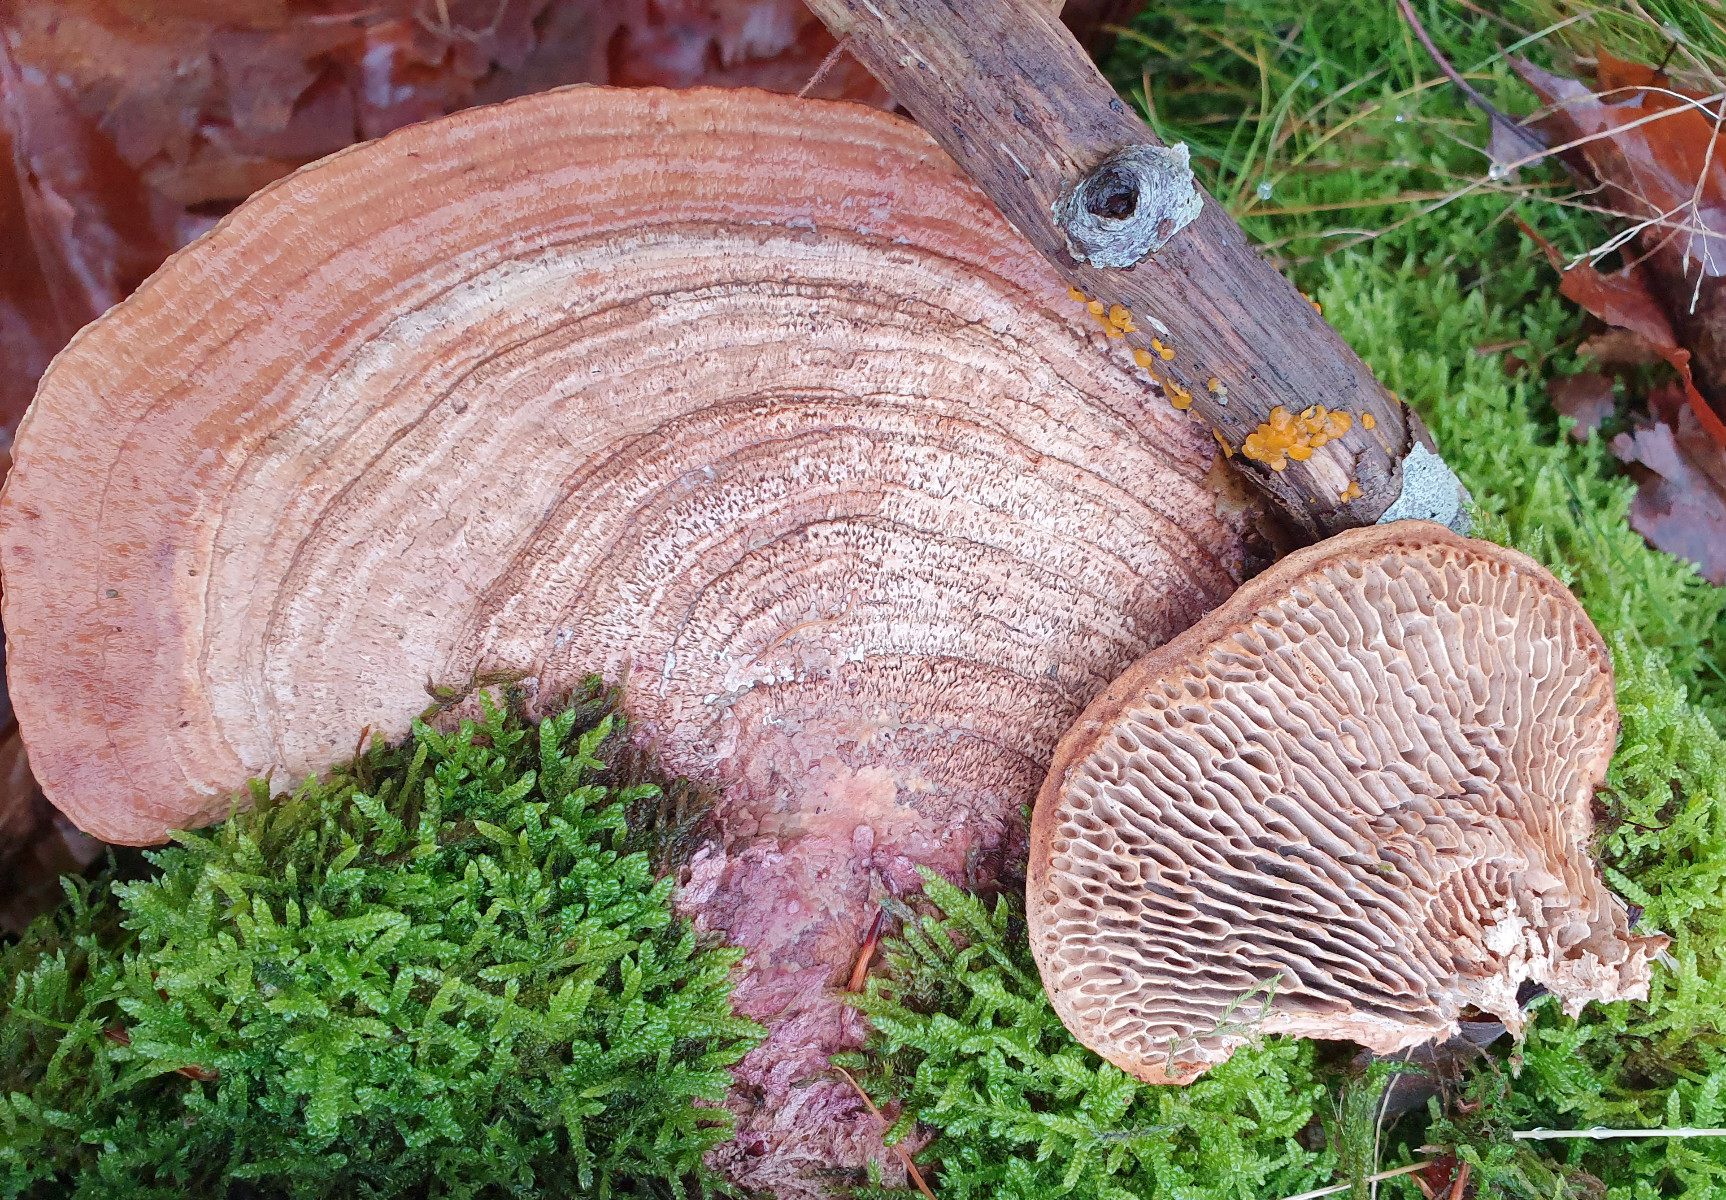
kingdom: Fungi
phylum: Basidiomycota
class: Agaricomycetes
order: Polyporales
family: Polyporaceae
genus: Daedaleopsis
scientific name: Daedaleopsis confragosa
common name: rødmende læderporesvamp
